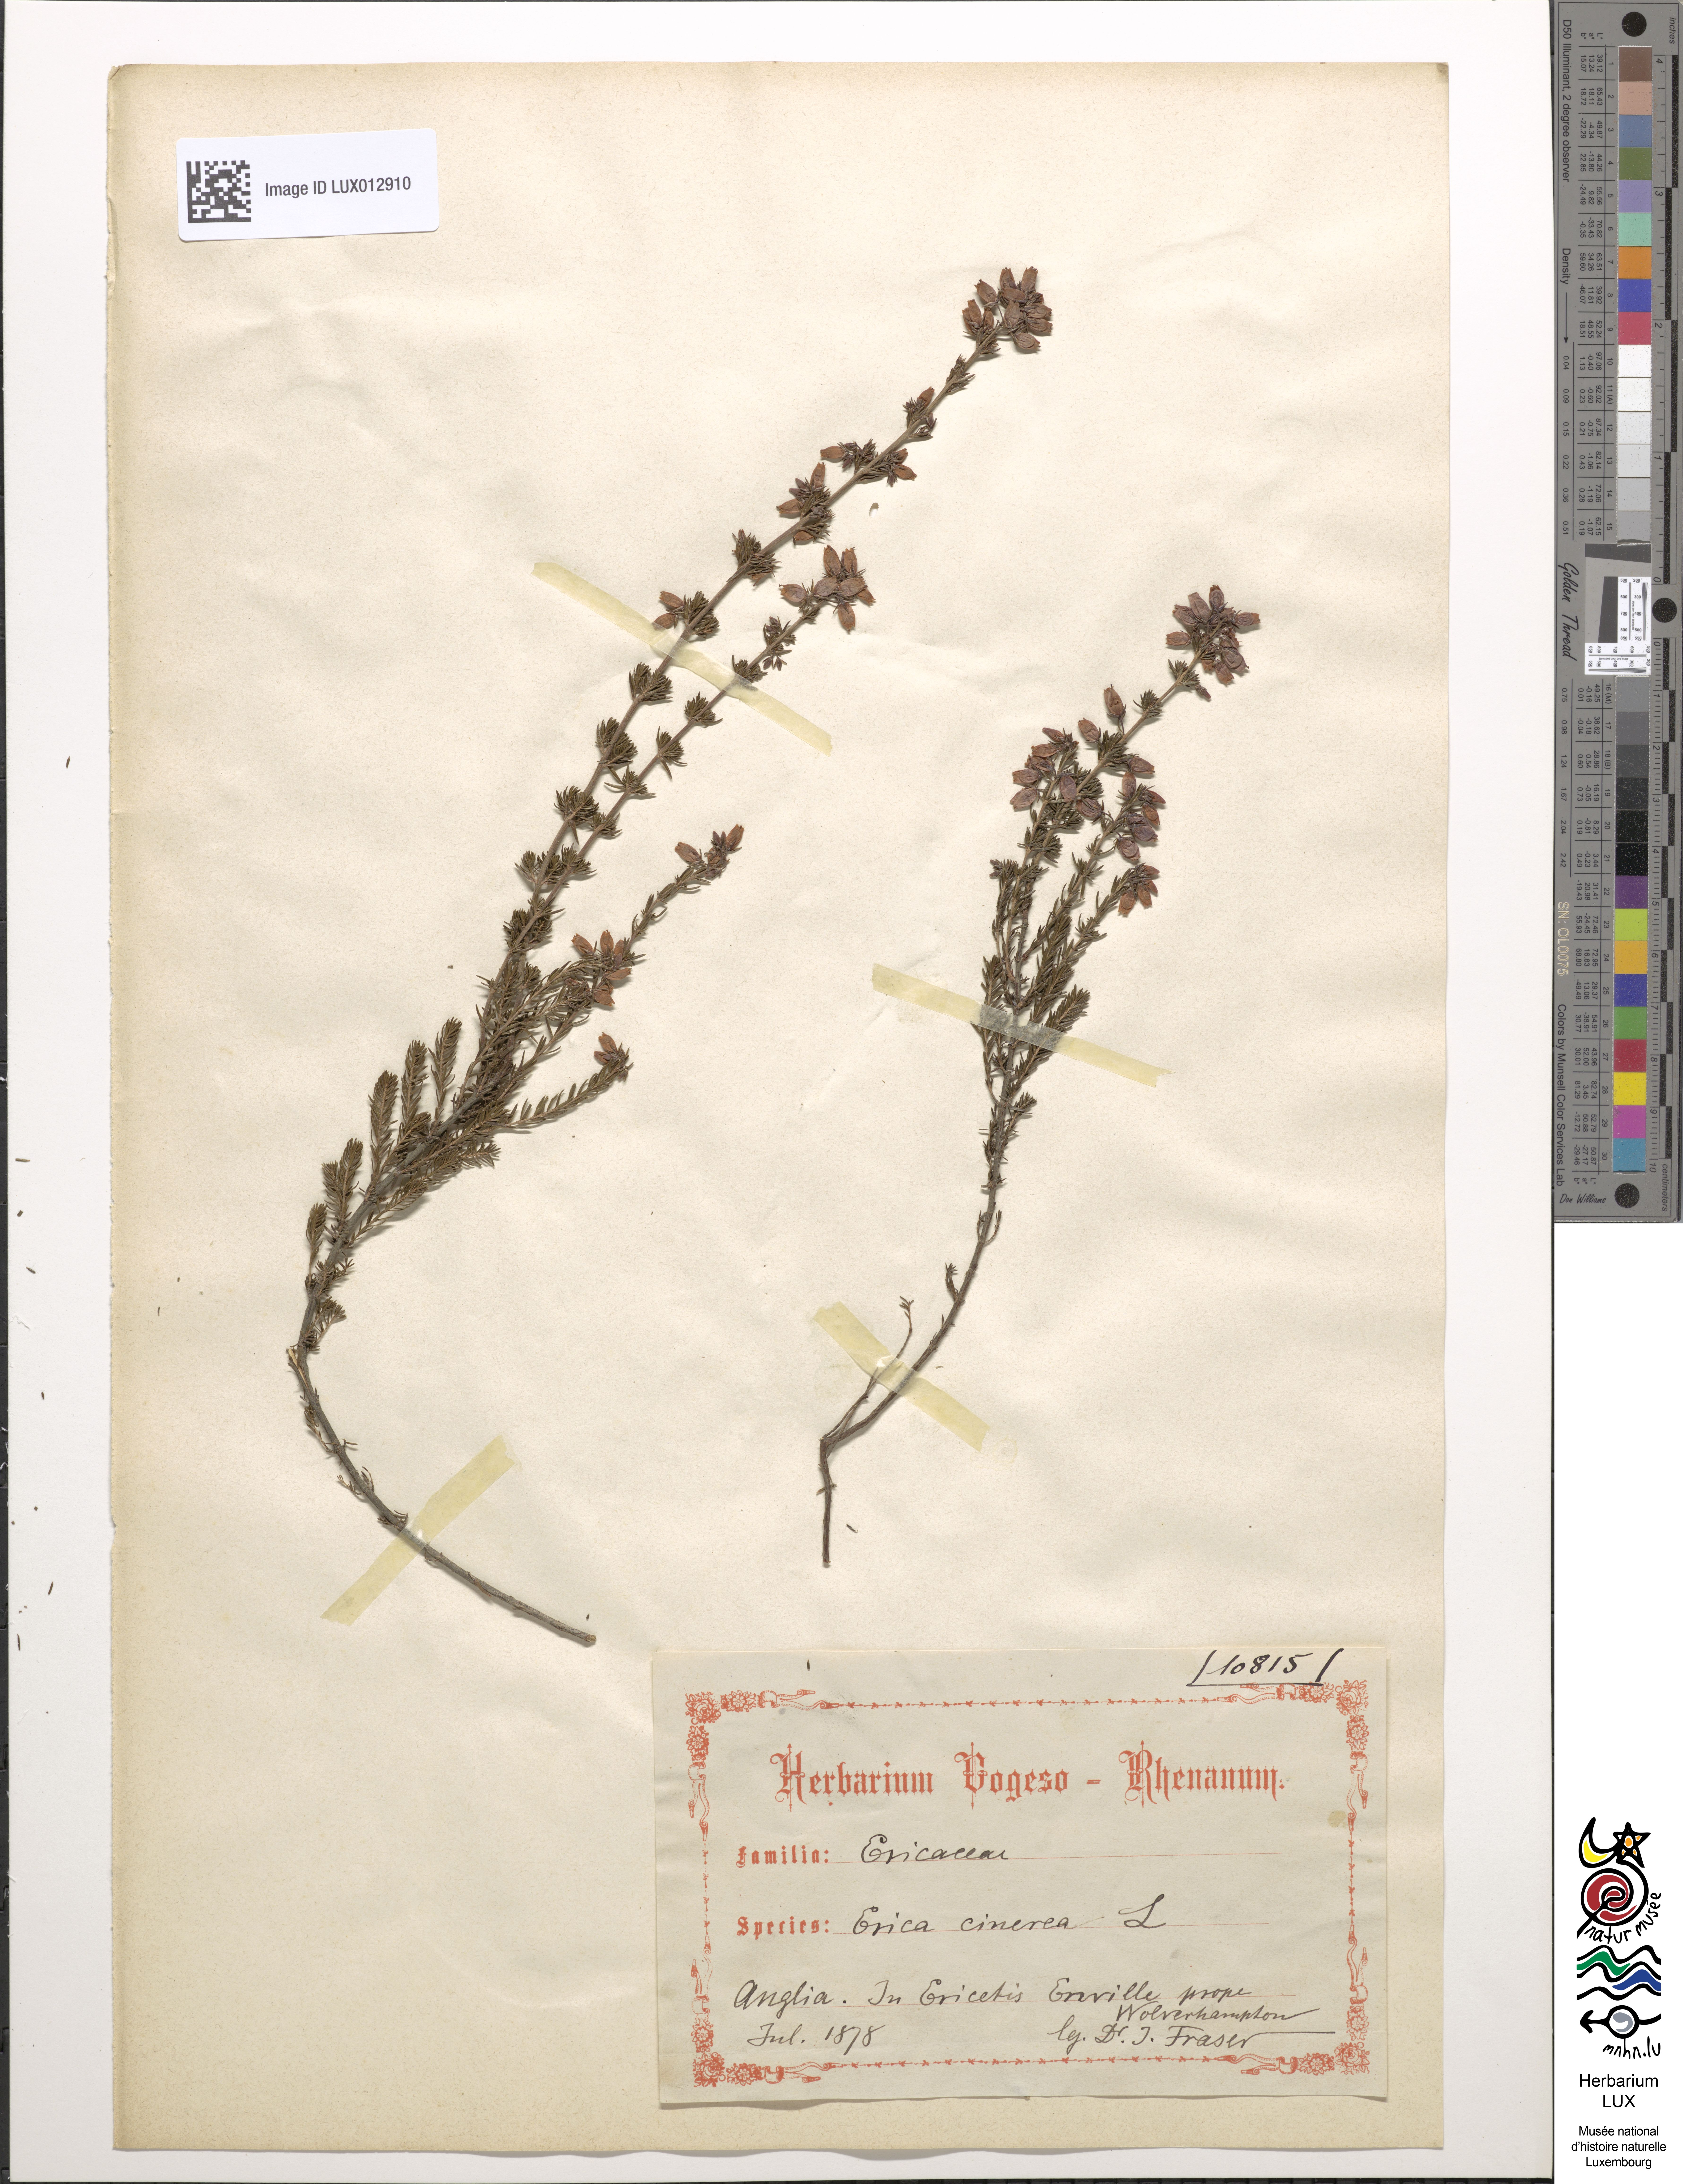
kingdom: Plantae
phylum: Tracheophyta
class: Magnoliopsida
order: Ericales
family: Ericaceae
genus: Erica
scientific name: Erica cinerea
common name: Bell heather
